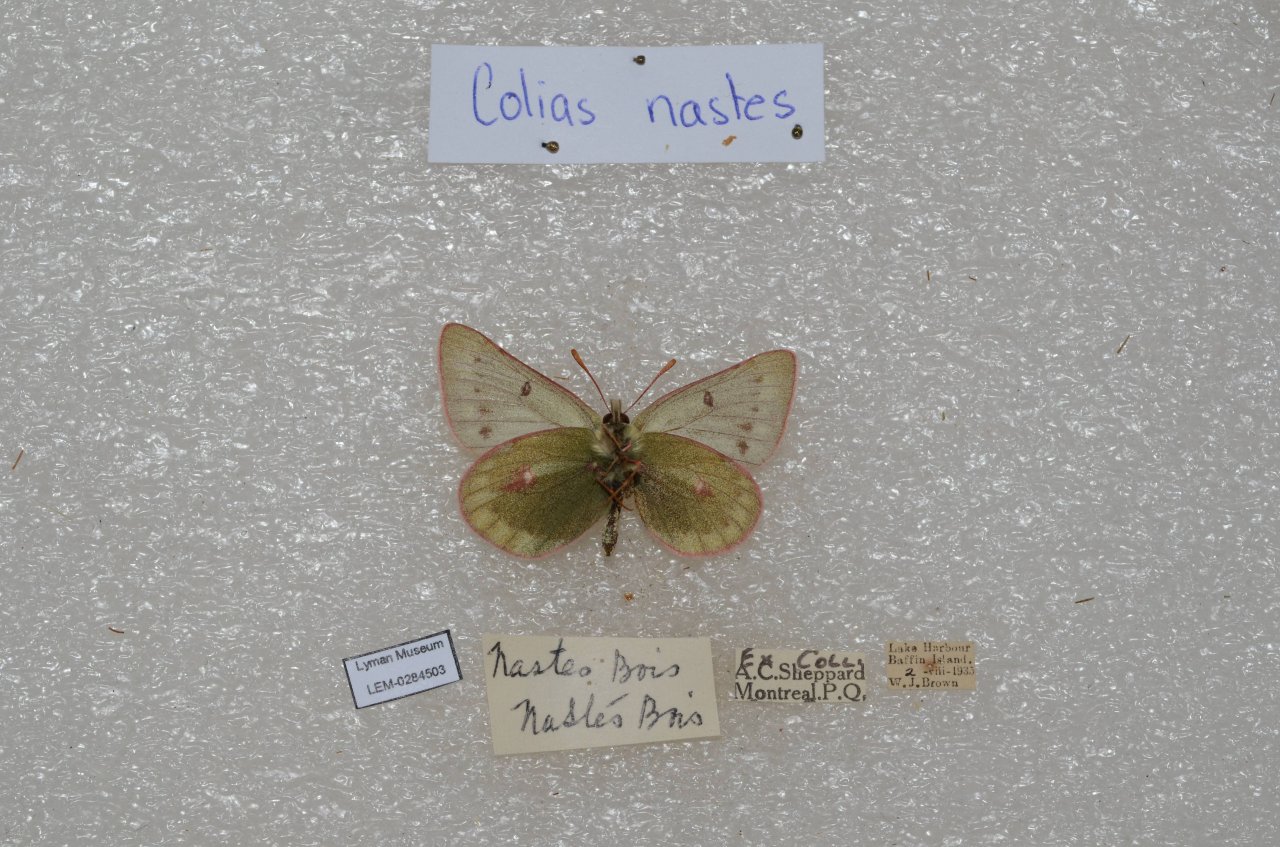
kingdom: Animalia
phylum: Arthropoda
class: Insecta
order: Lepidoptera
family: Pieridae
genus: Colias
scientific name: Colias nastes
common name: Labrador Sulphur
